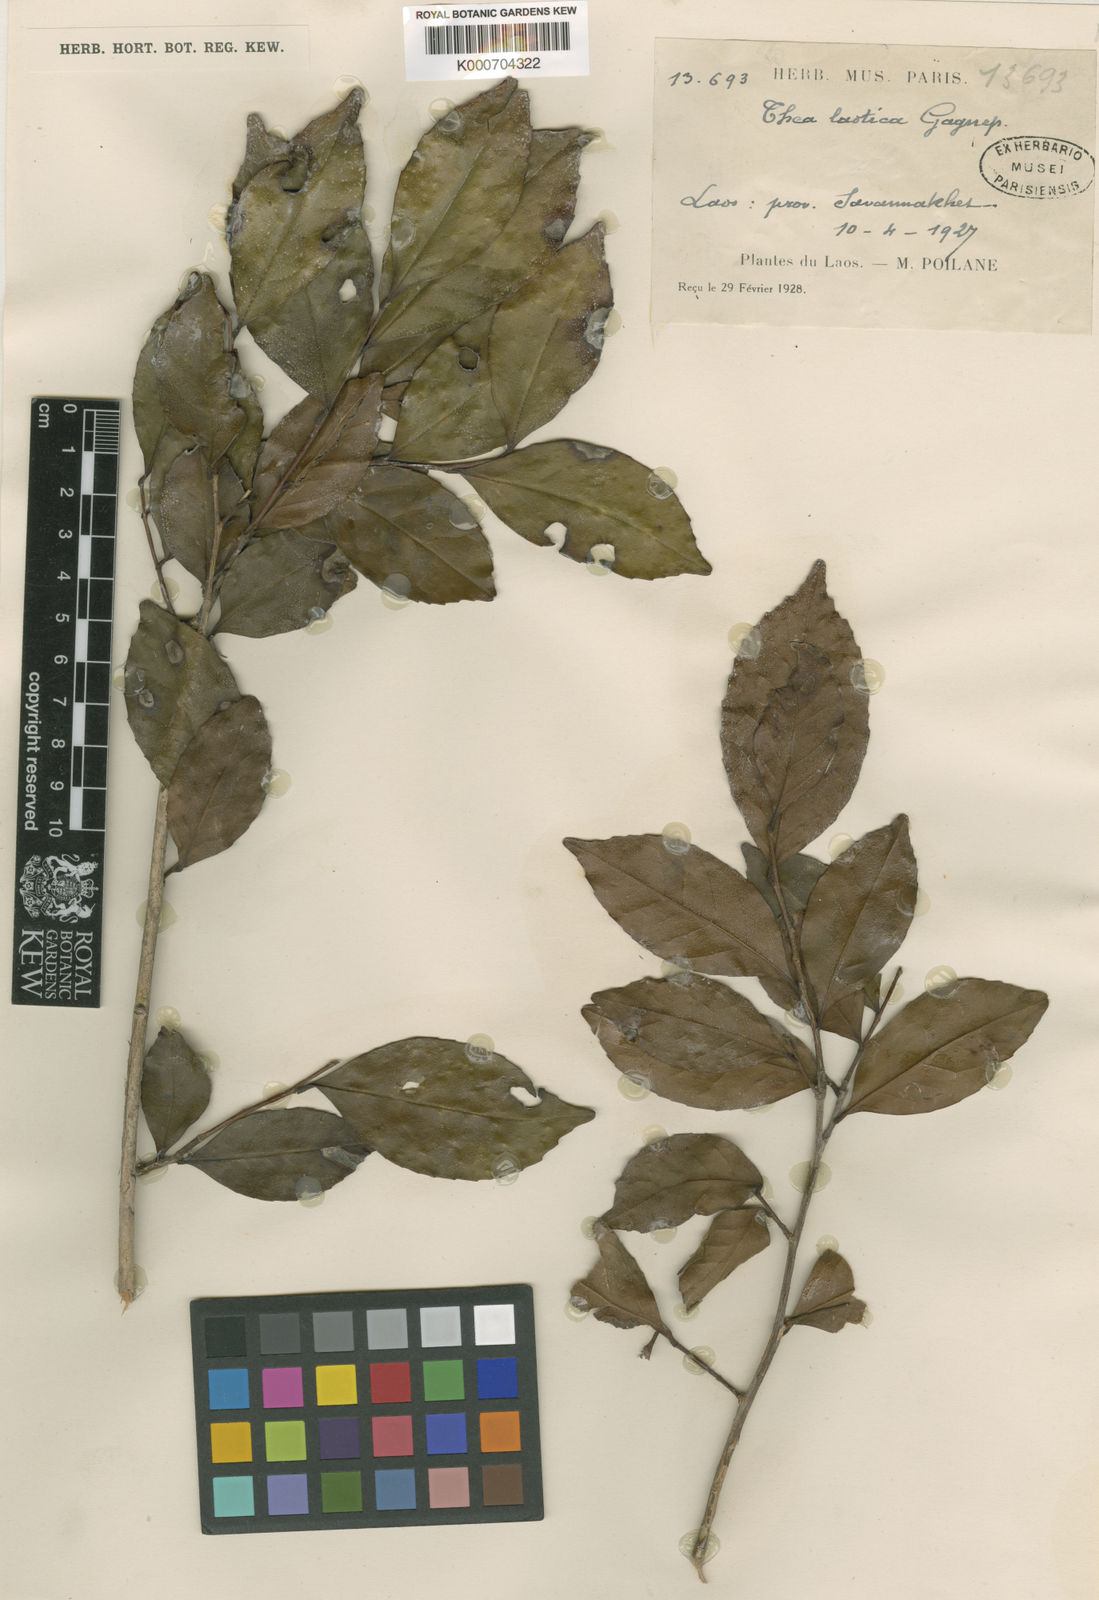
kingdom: Plantae
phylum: Tracheophyta
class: Magnoliopsida
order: Ericales
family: Theaceae
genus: Camellia
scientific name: Camellia laotica
